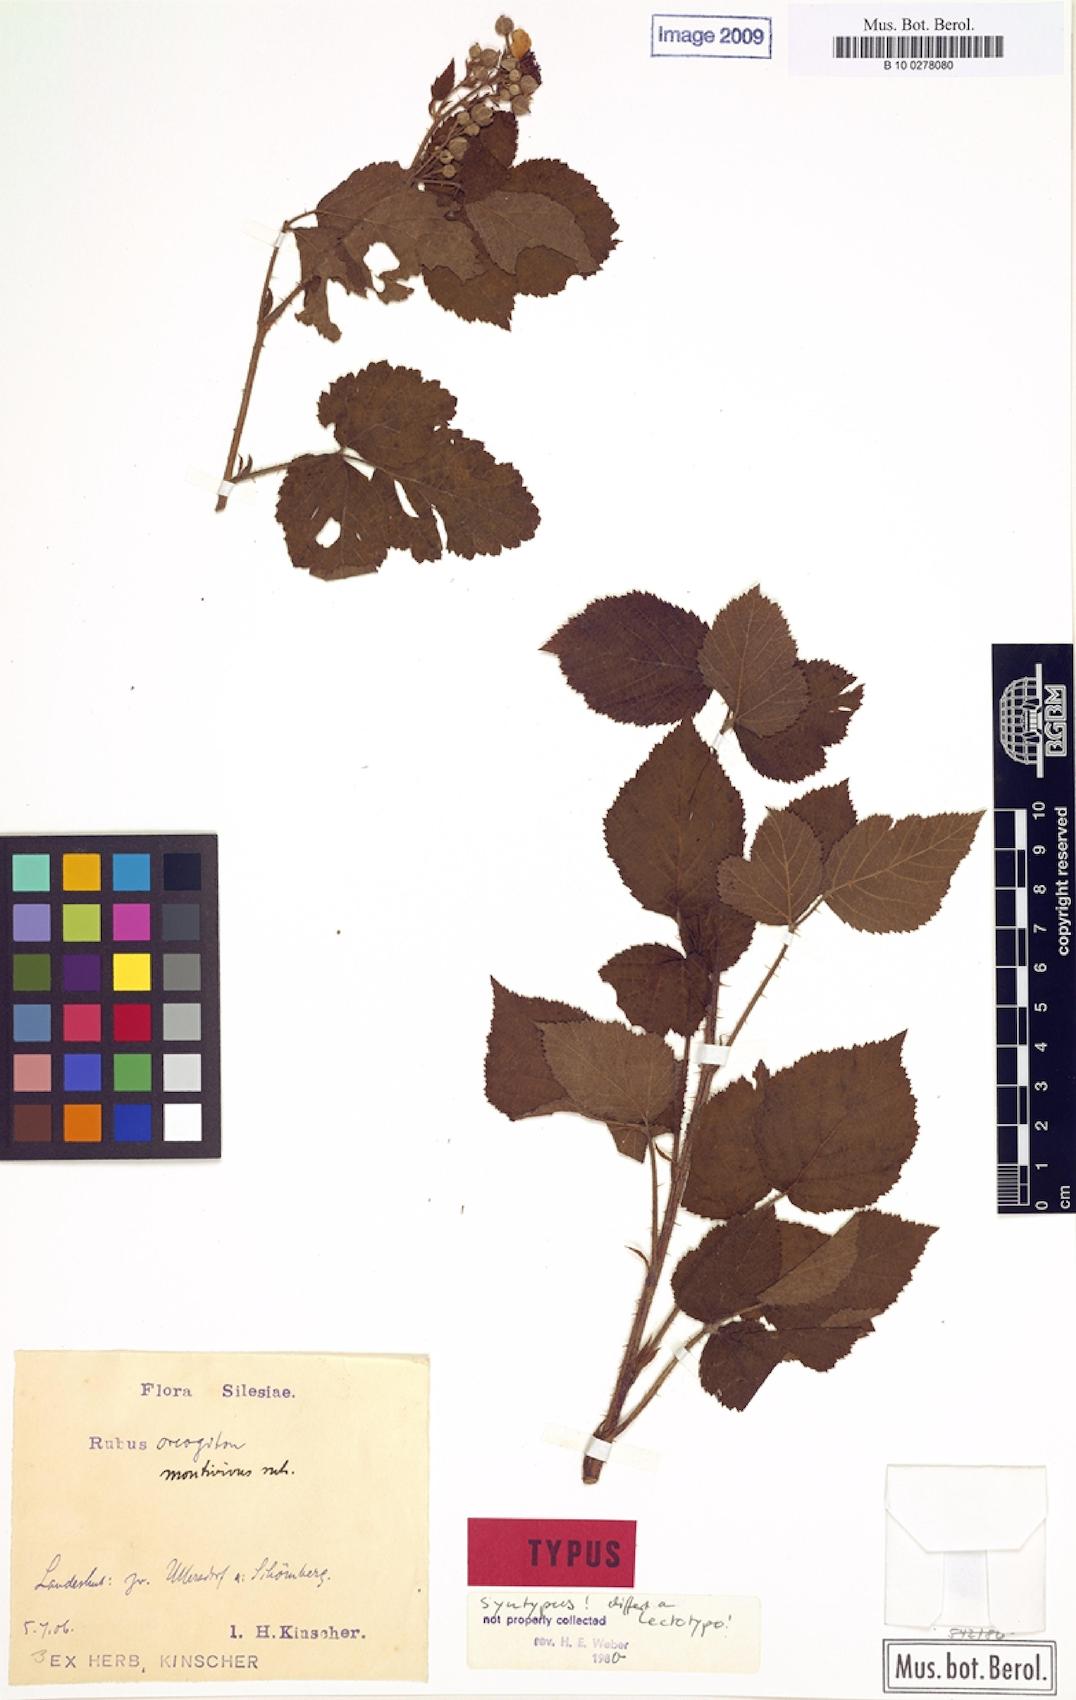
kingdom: Plantae
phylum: Tracheophyta
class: Magnoliopsida
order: Rosales
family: Rosaceae
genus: Rubus
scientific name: Rubus dollnensis
